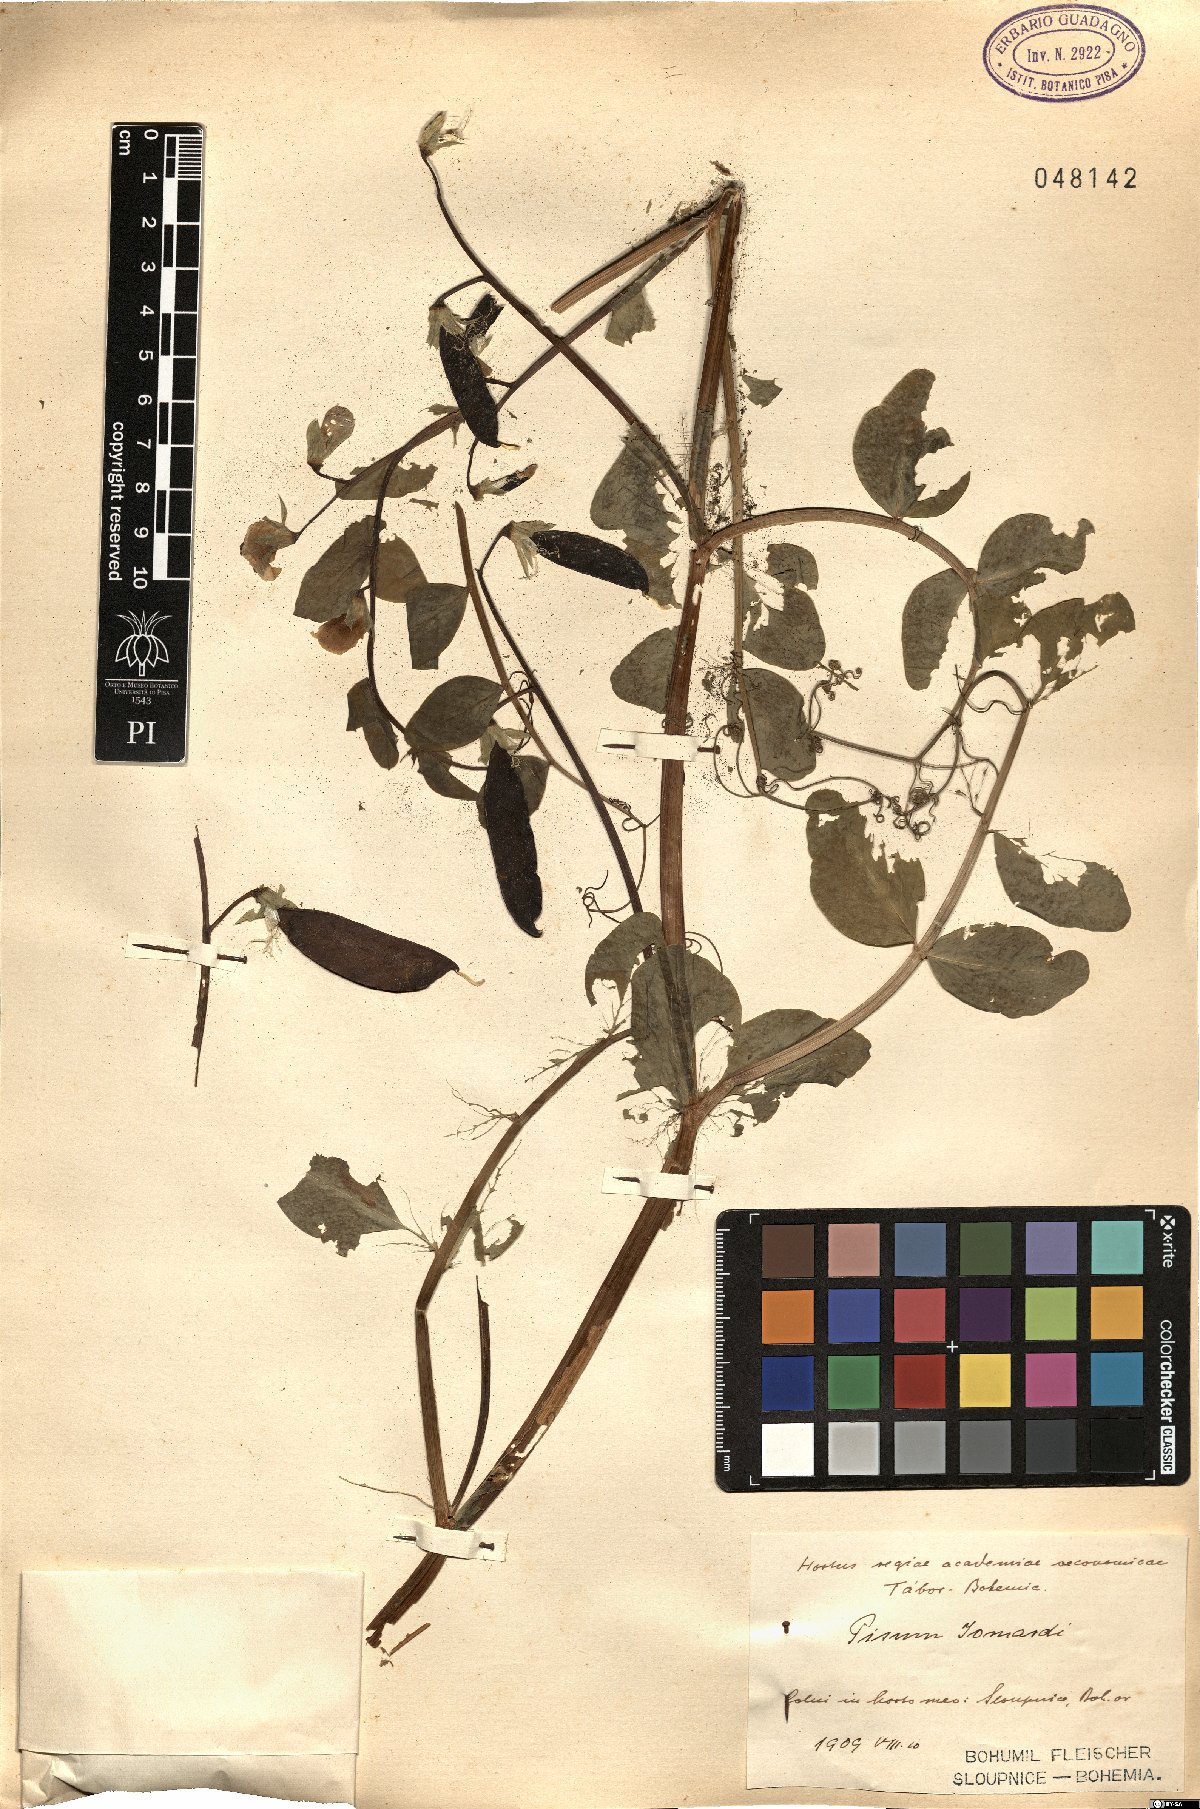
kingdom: Plantae
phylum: Tracheophyta
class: Magnoliopsida
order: Fabales
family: Fabaceae
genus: Lathyrus
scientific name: Lathyrus oleraceus
